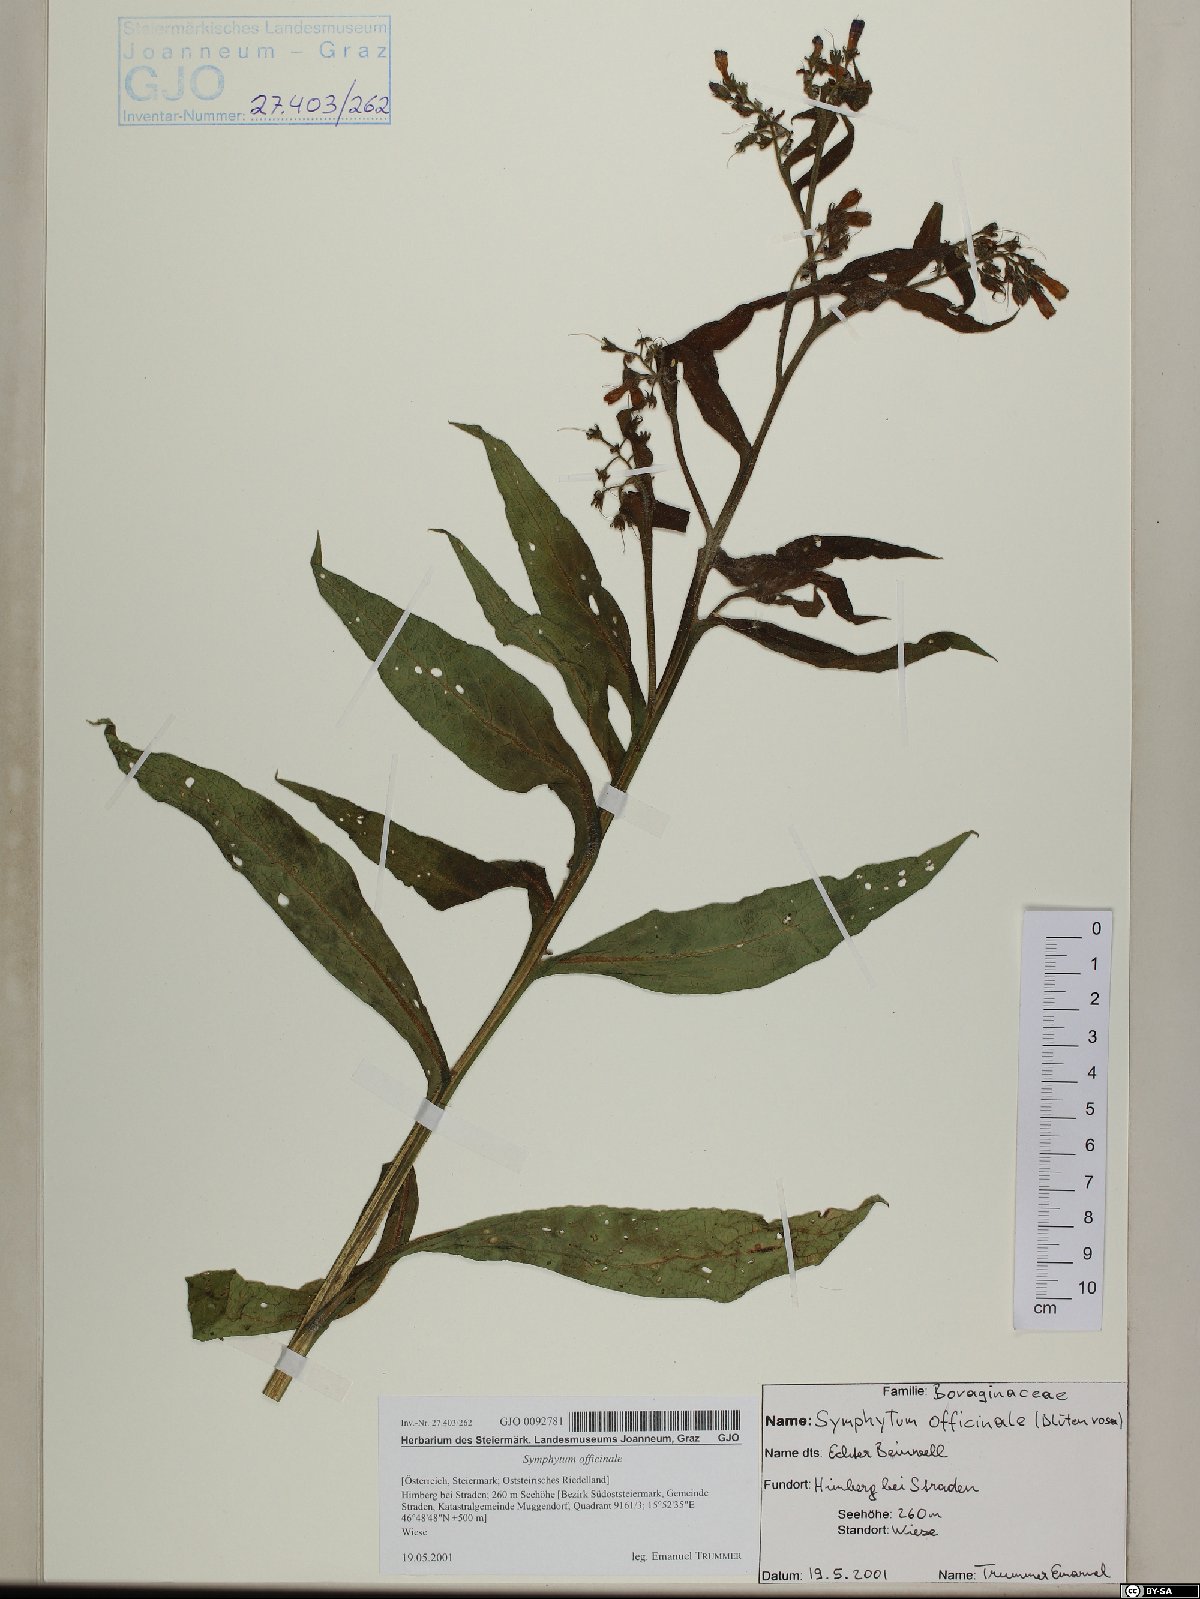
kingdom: Plantae
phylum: Tracheophyta
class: Magnoliopsida
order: Boraginales
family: Boraginaceae
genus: Symphytum
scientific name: Symphytum officinale
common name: Common comfrey
